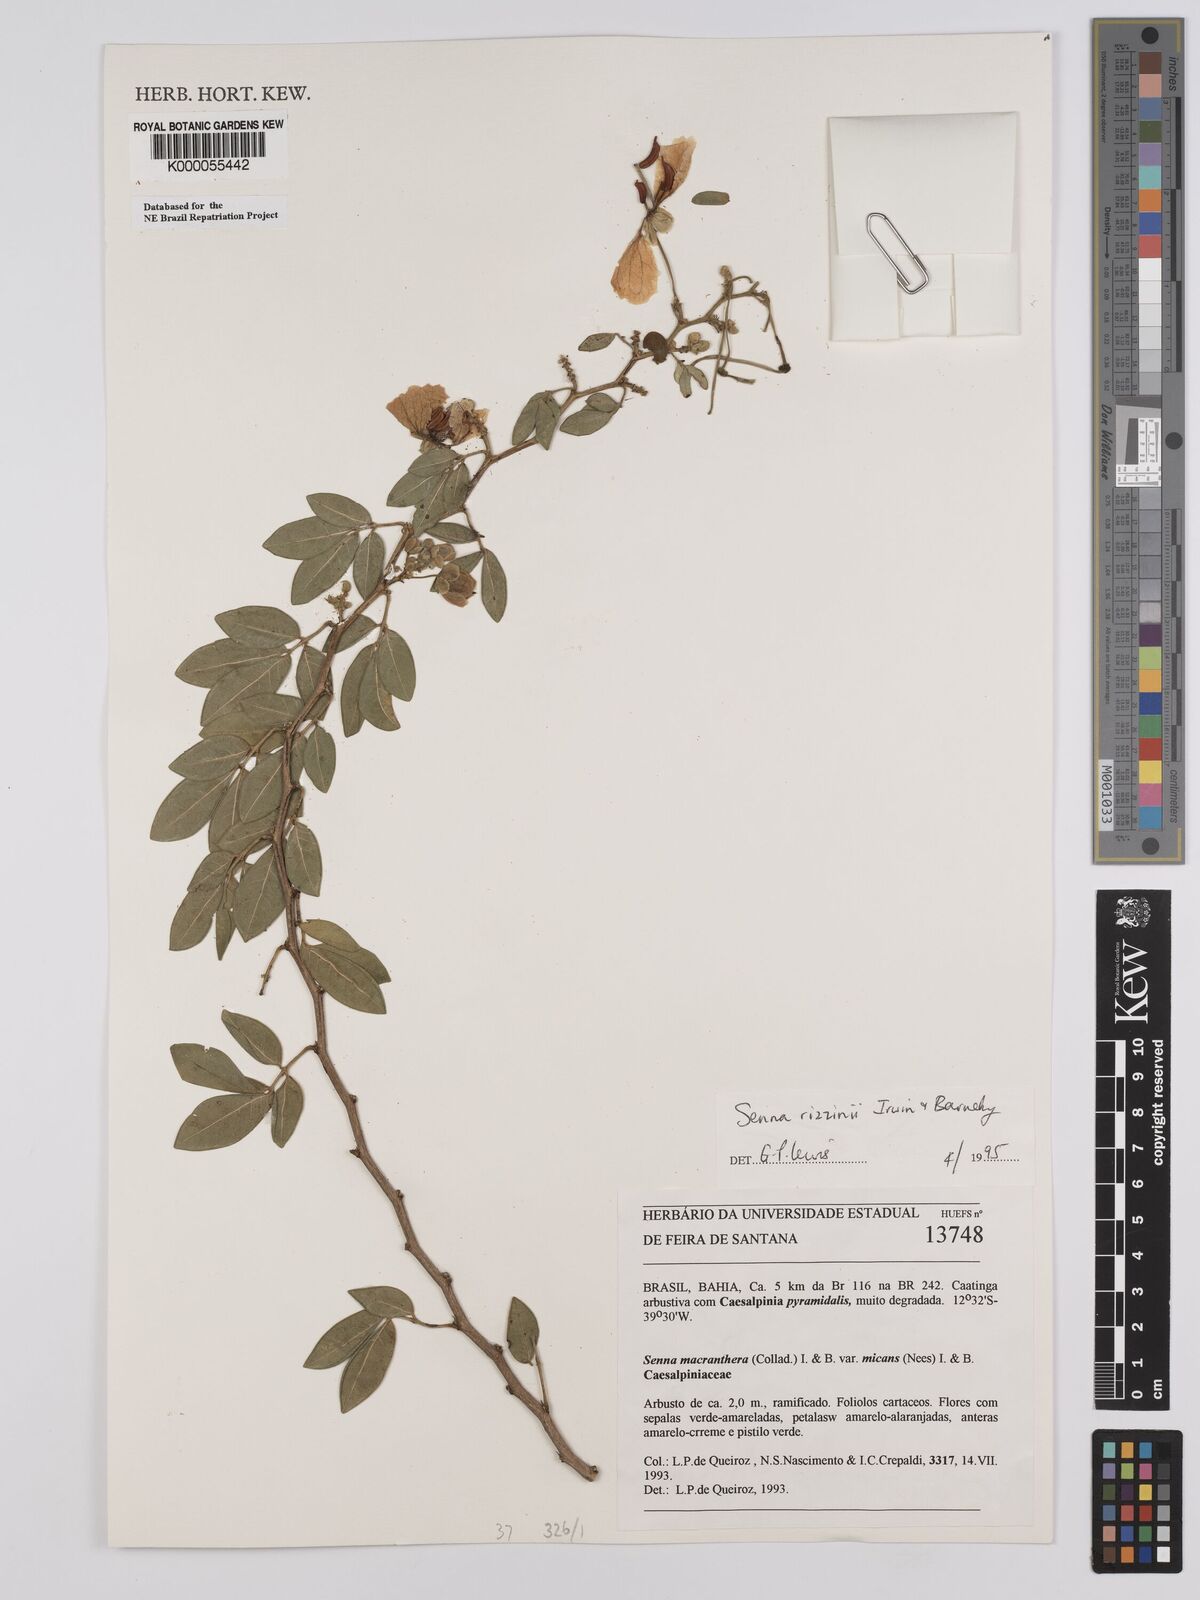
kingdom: Plantae
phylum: Tracheophyta
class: Magnoliopsida
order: Fabales
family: Fabaceae
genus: Senna
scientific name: Senna macranthera
